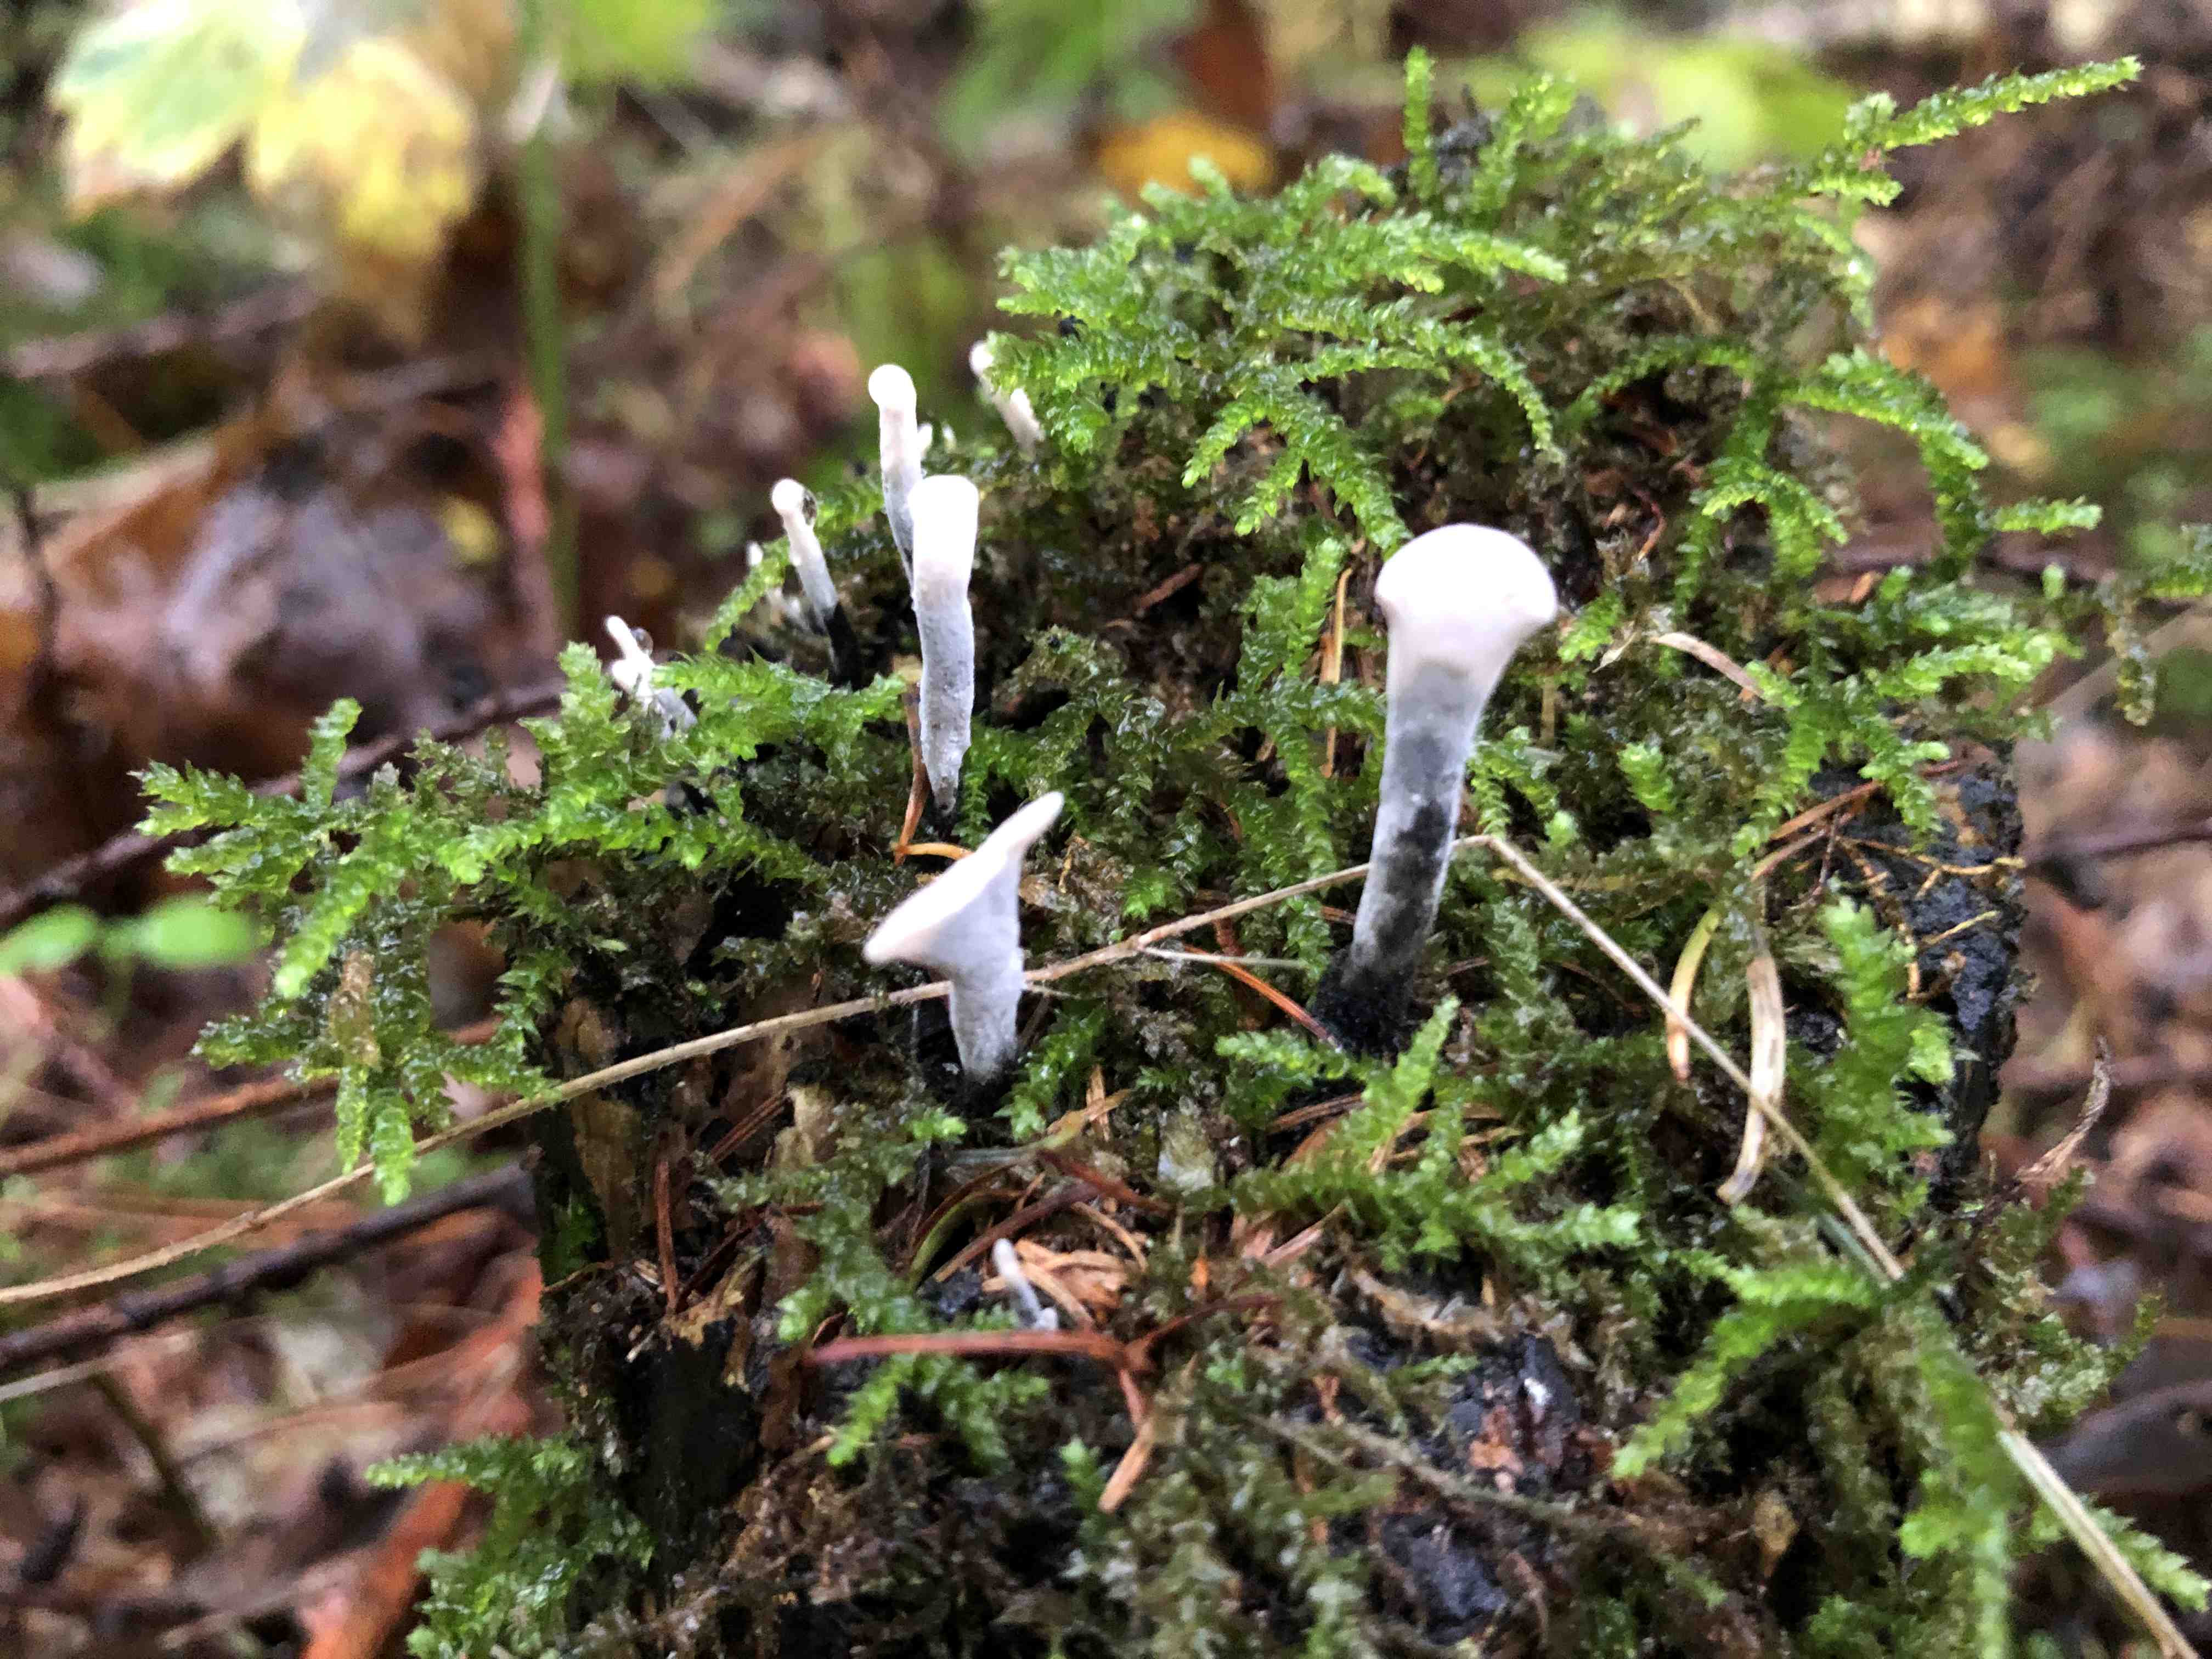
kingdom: Fungi
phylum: Ascomycota
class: Sordariomycetes
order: Xylariales
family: Xylariaceae
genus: Xylaria
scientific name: Xylaria hypoxylon
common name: grenet stødsvamp
